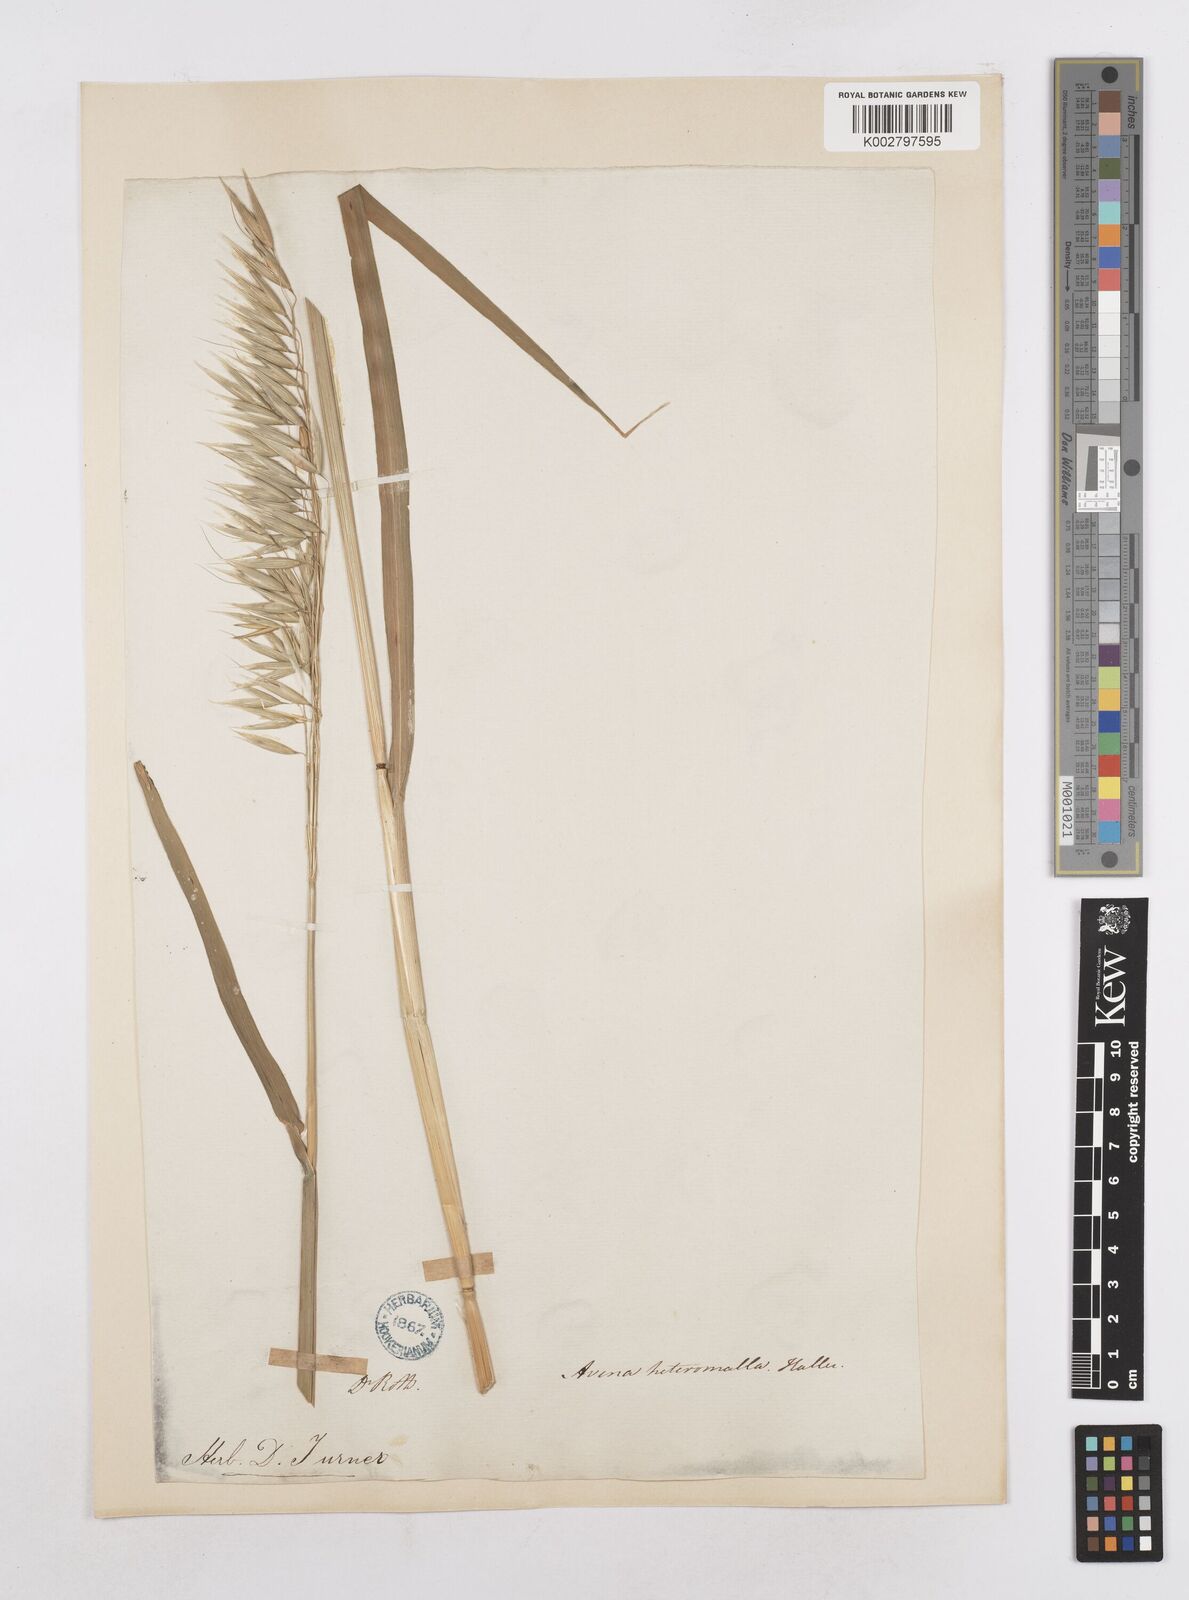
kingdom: Plantae
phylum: Tracheophyta
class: Liliopsida
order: Poales
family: Poaceae
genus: Avena
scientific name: Avena sativa
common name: Oat
